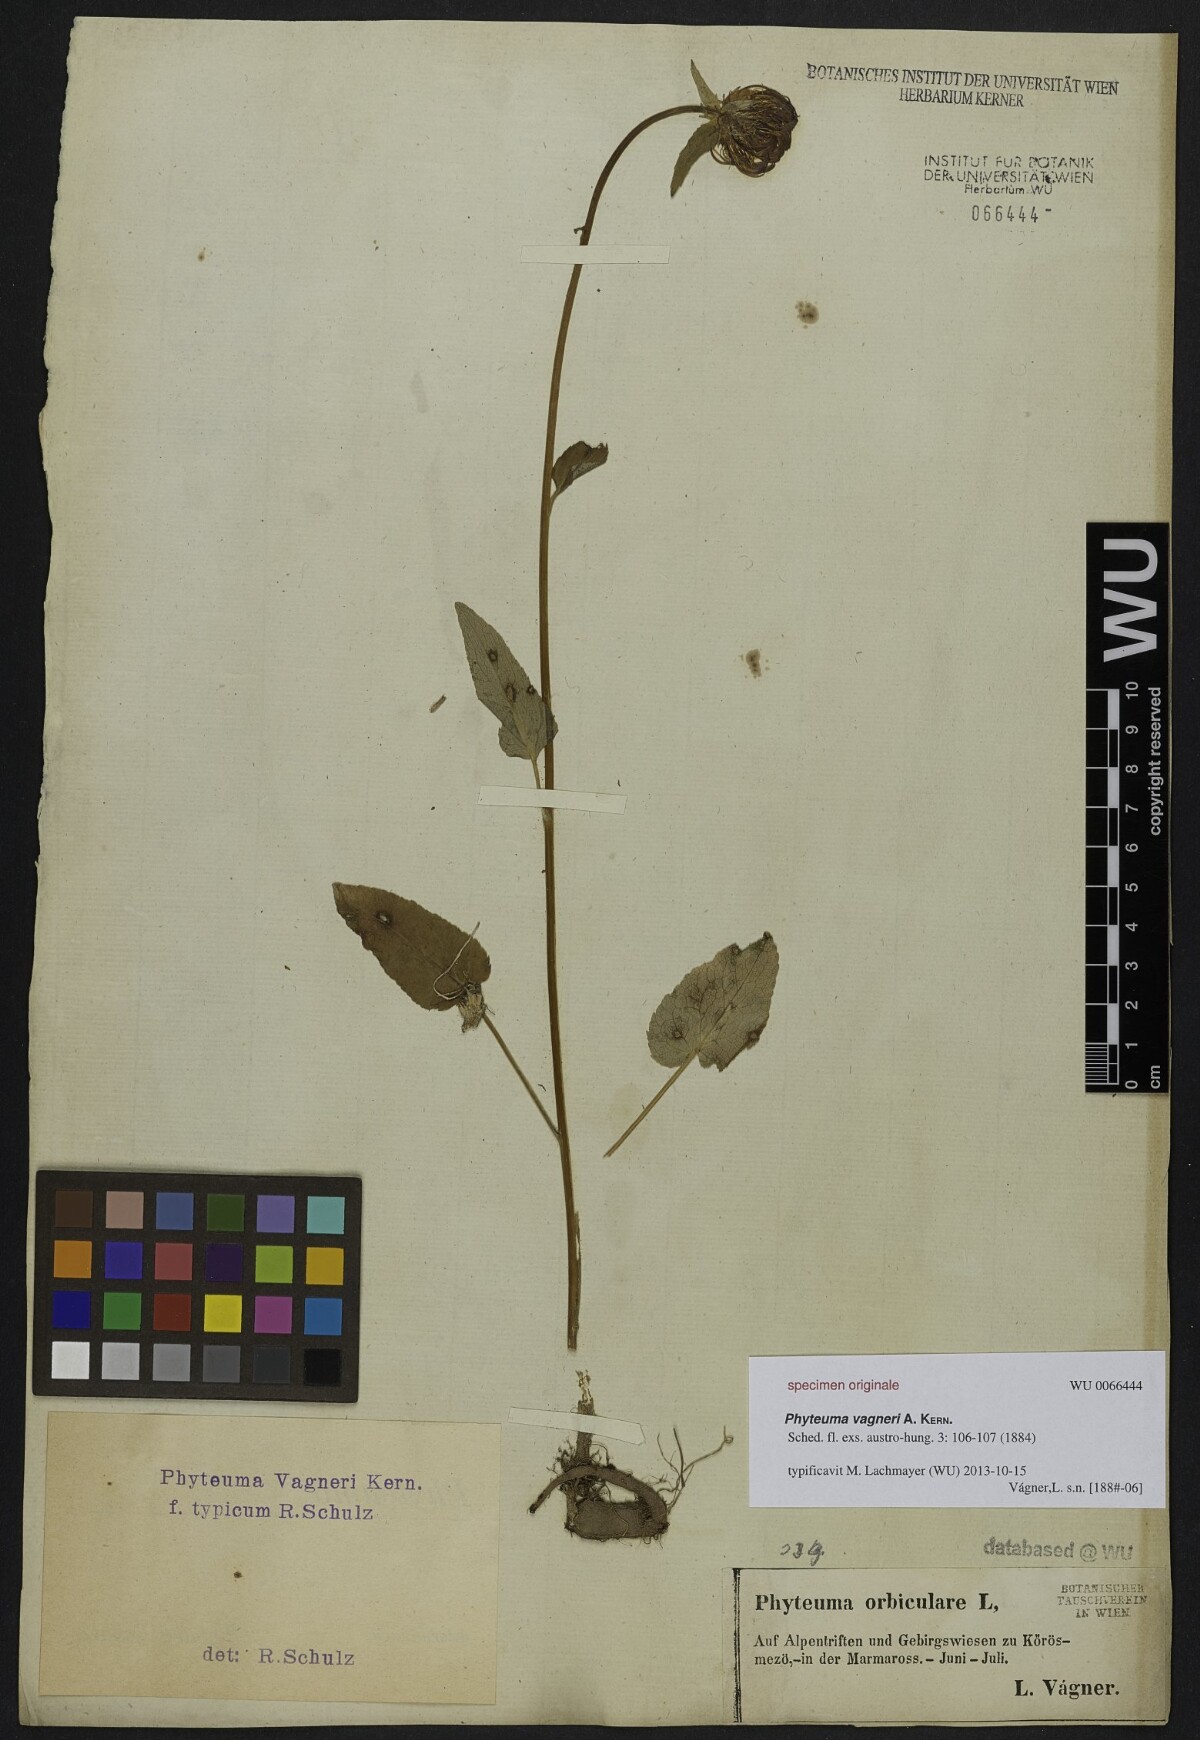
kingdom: Plantae
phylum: Tracheophyta
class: Magnoliopsida
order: Asterales
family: Campanulaceae
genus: Phyteuma
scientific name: Phyteuma vagneri
